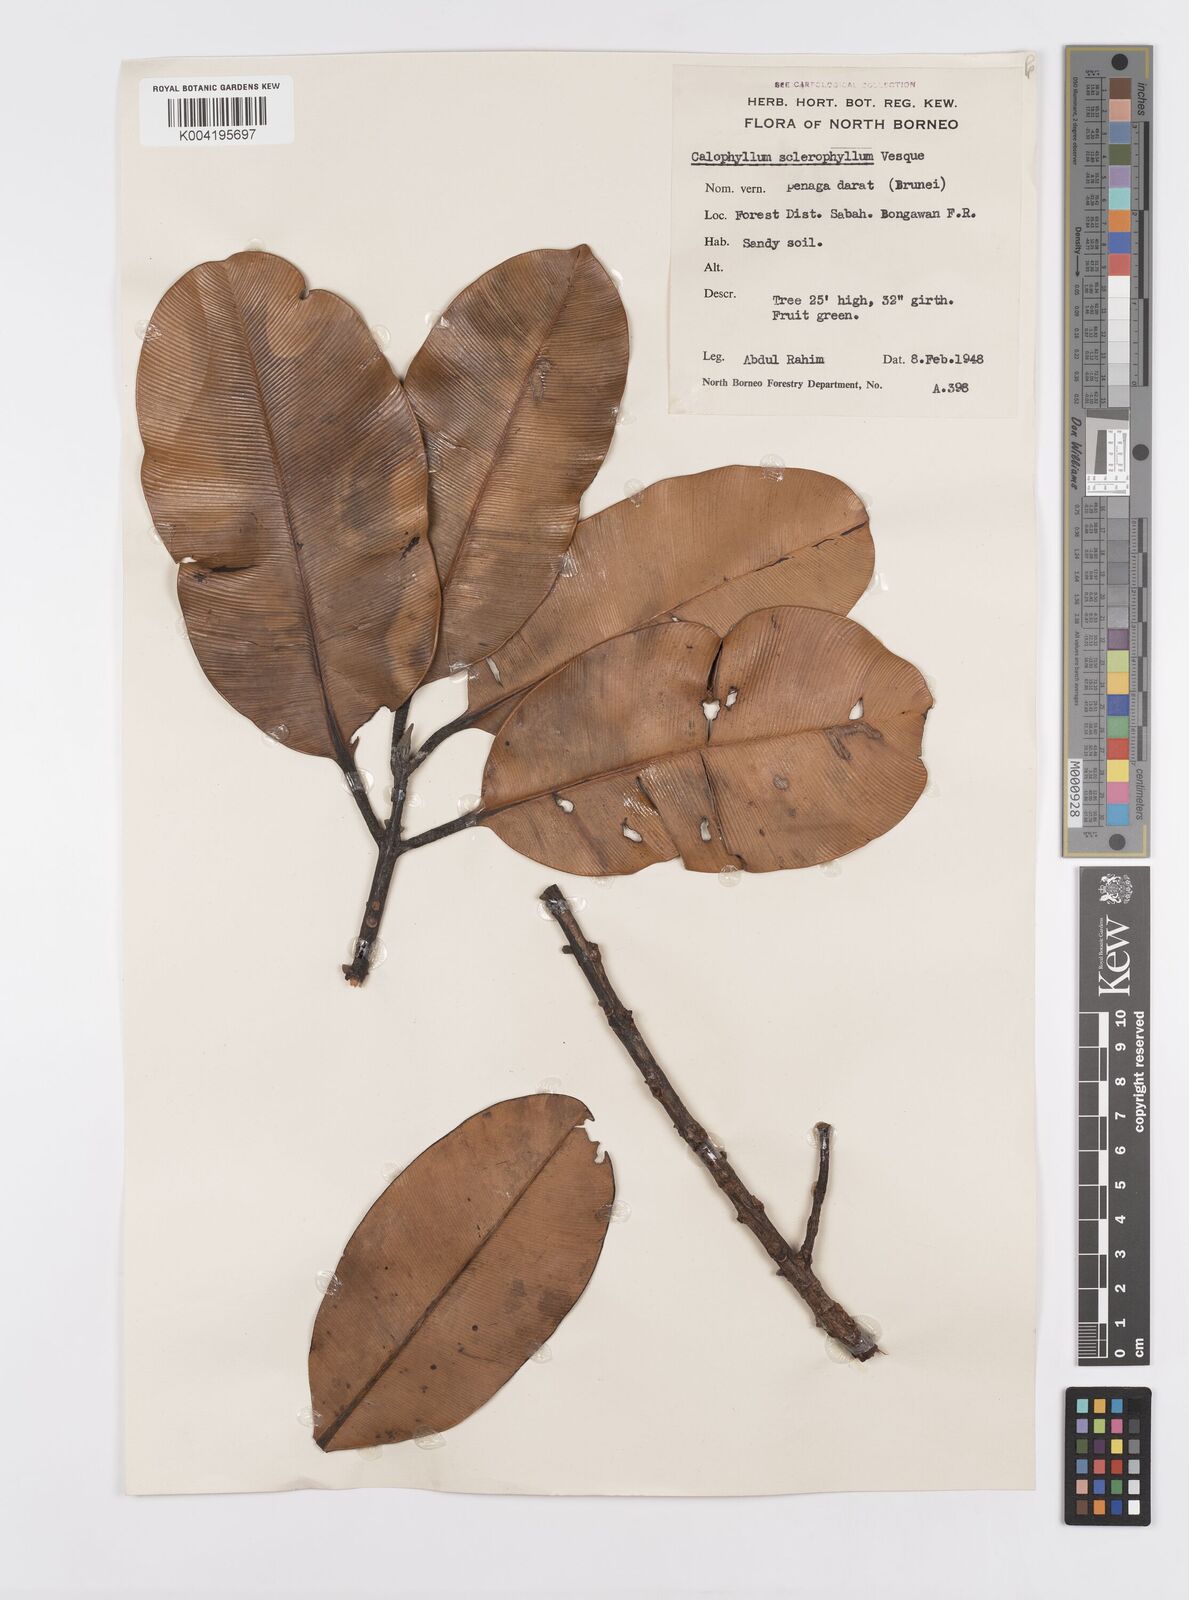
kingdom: Plantae
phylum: Tracheophyta
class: Magnoliopsida
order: Malpighiales
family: Calophyllaceae
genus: Calophyllum
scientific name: Calophyllum sclerophyllum
